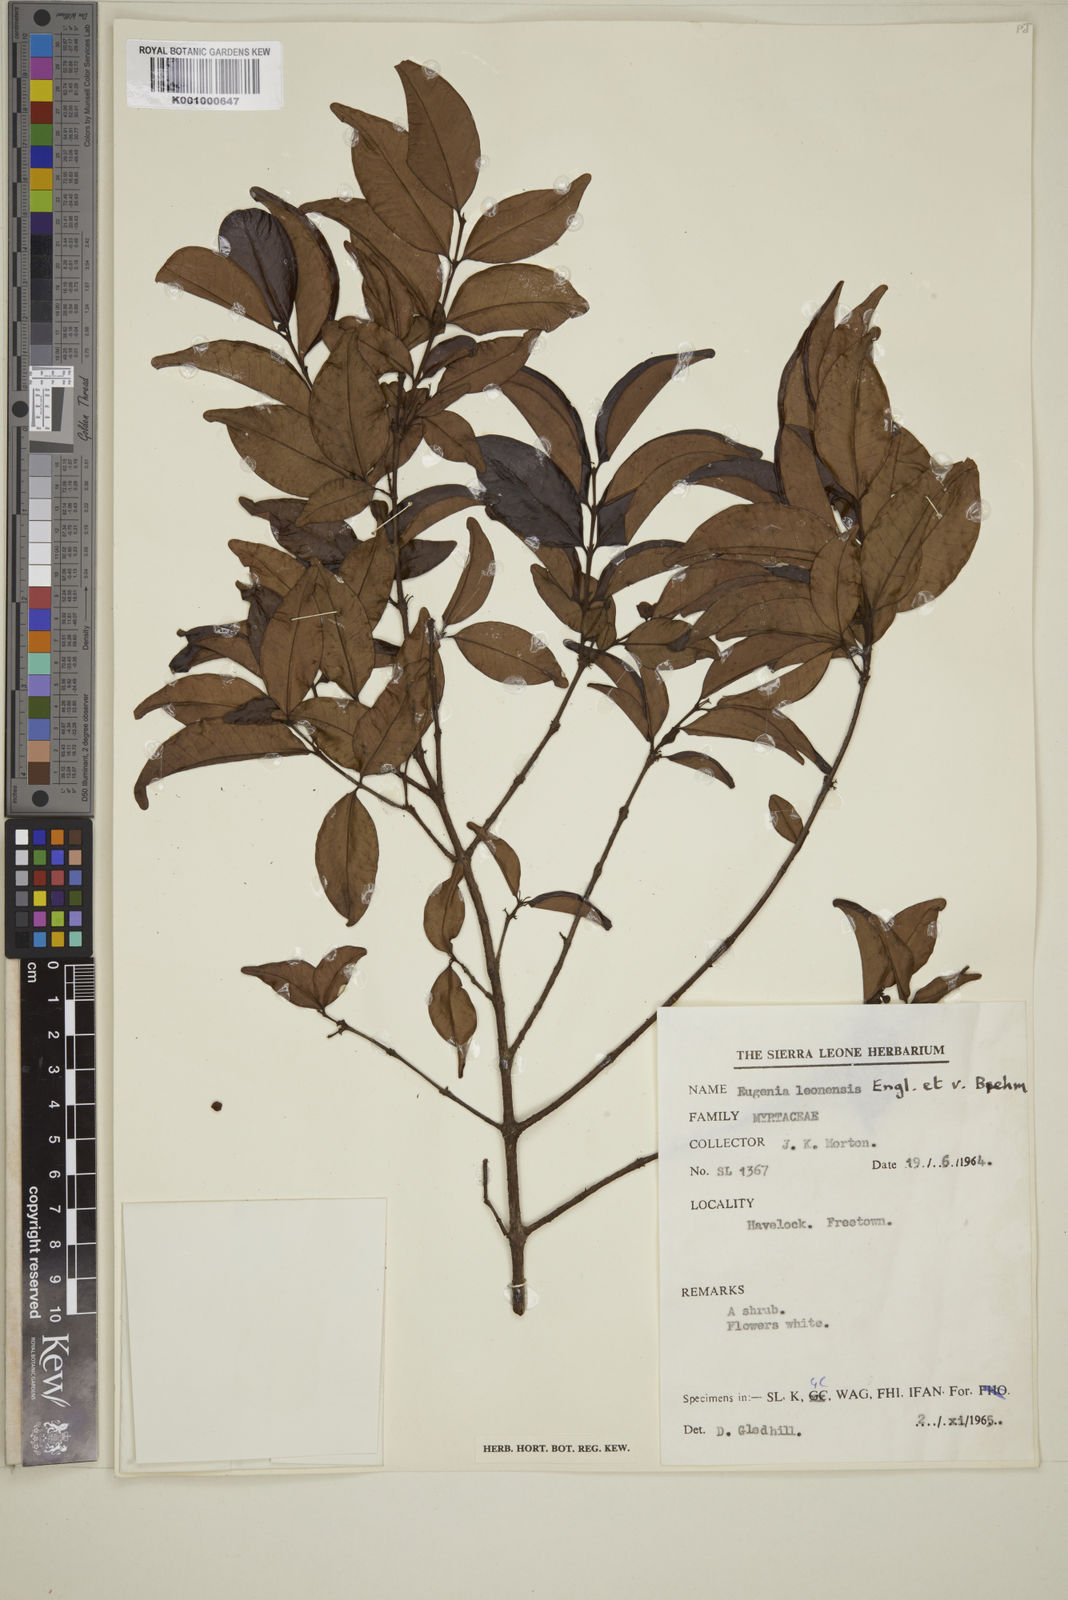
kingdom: Plantae
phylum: Tracheophyta
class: Magnoliopsida
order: Myrtales
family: Myrtaceae
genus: Eugenia
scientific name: Eugenia leonensis
